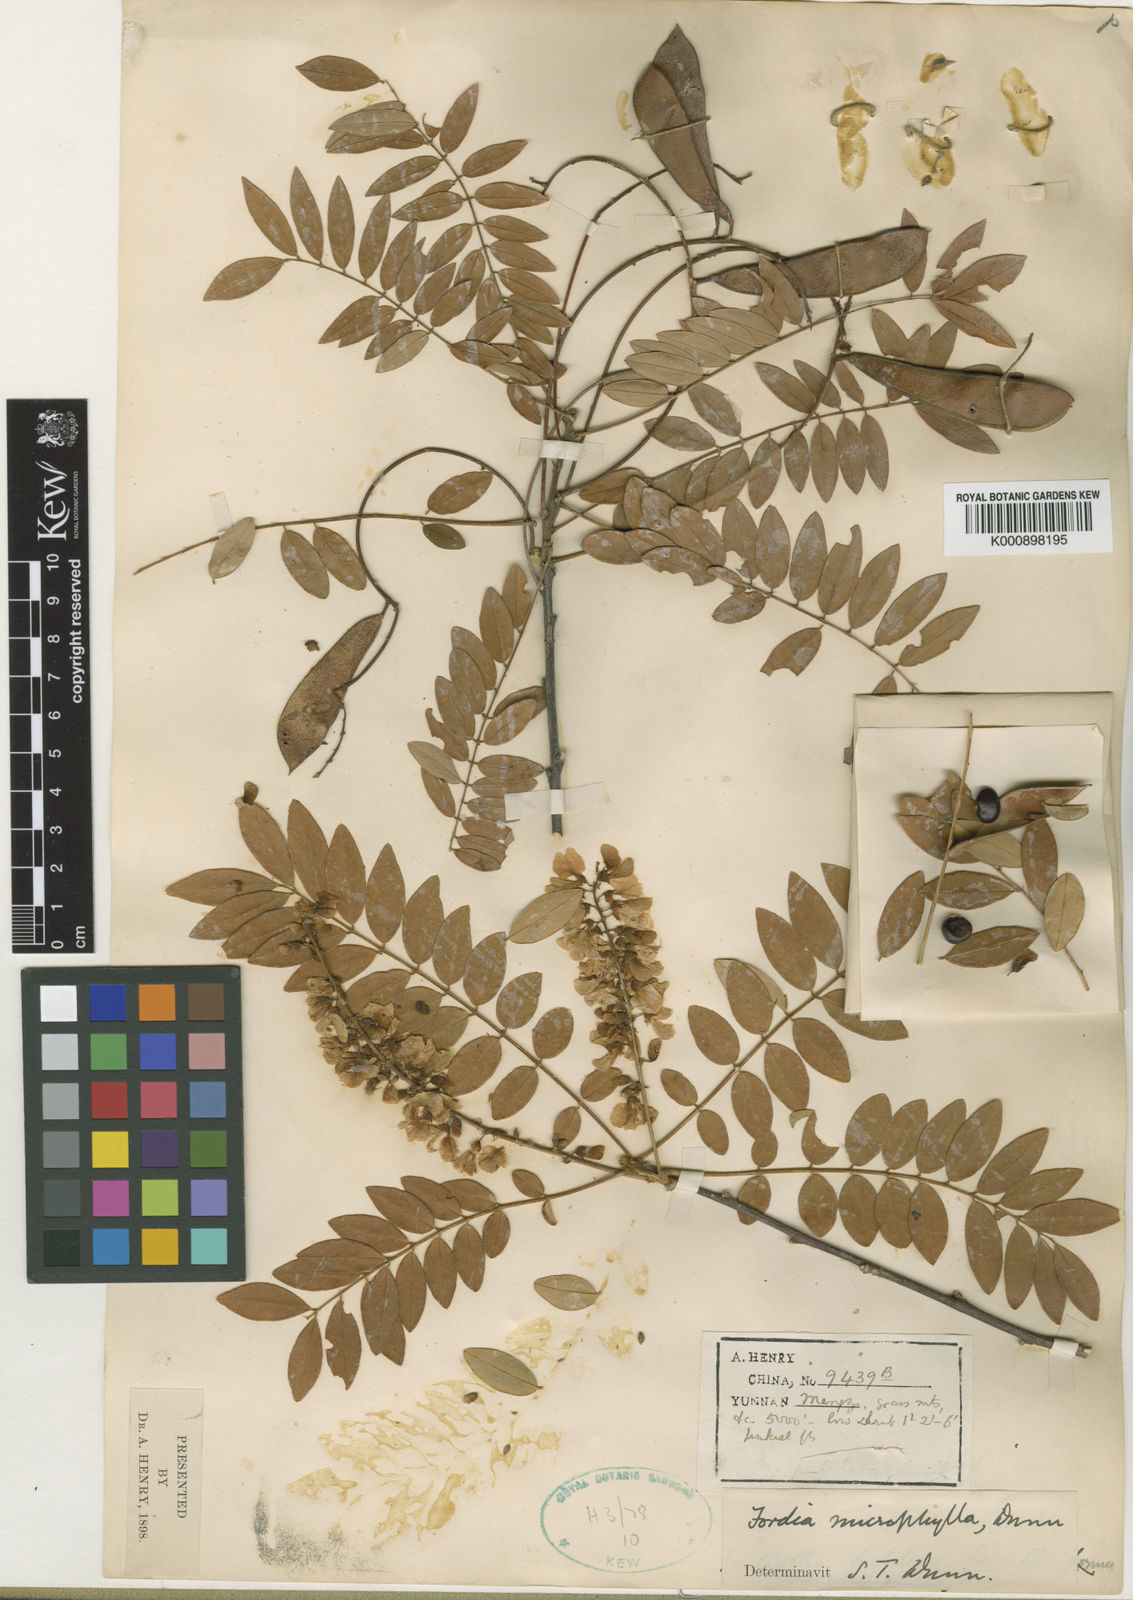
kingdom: Plantae
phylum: Tracheophyta
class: Magnoliopsida
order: Fabales
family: Fabaceae
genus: Millettia
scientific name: Millettia pulchra
